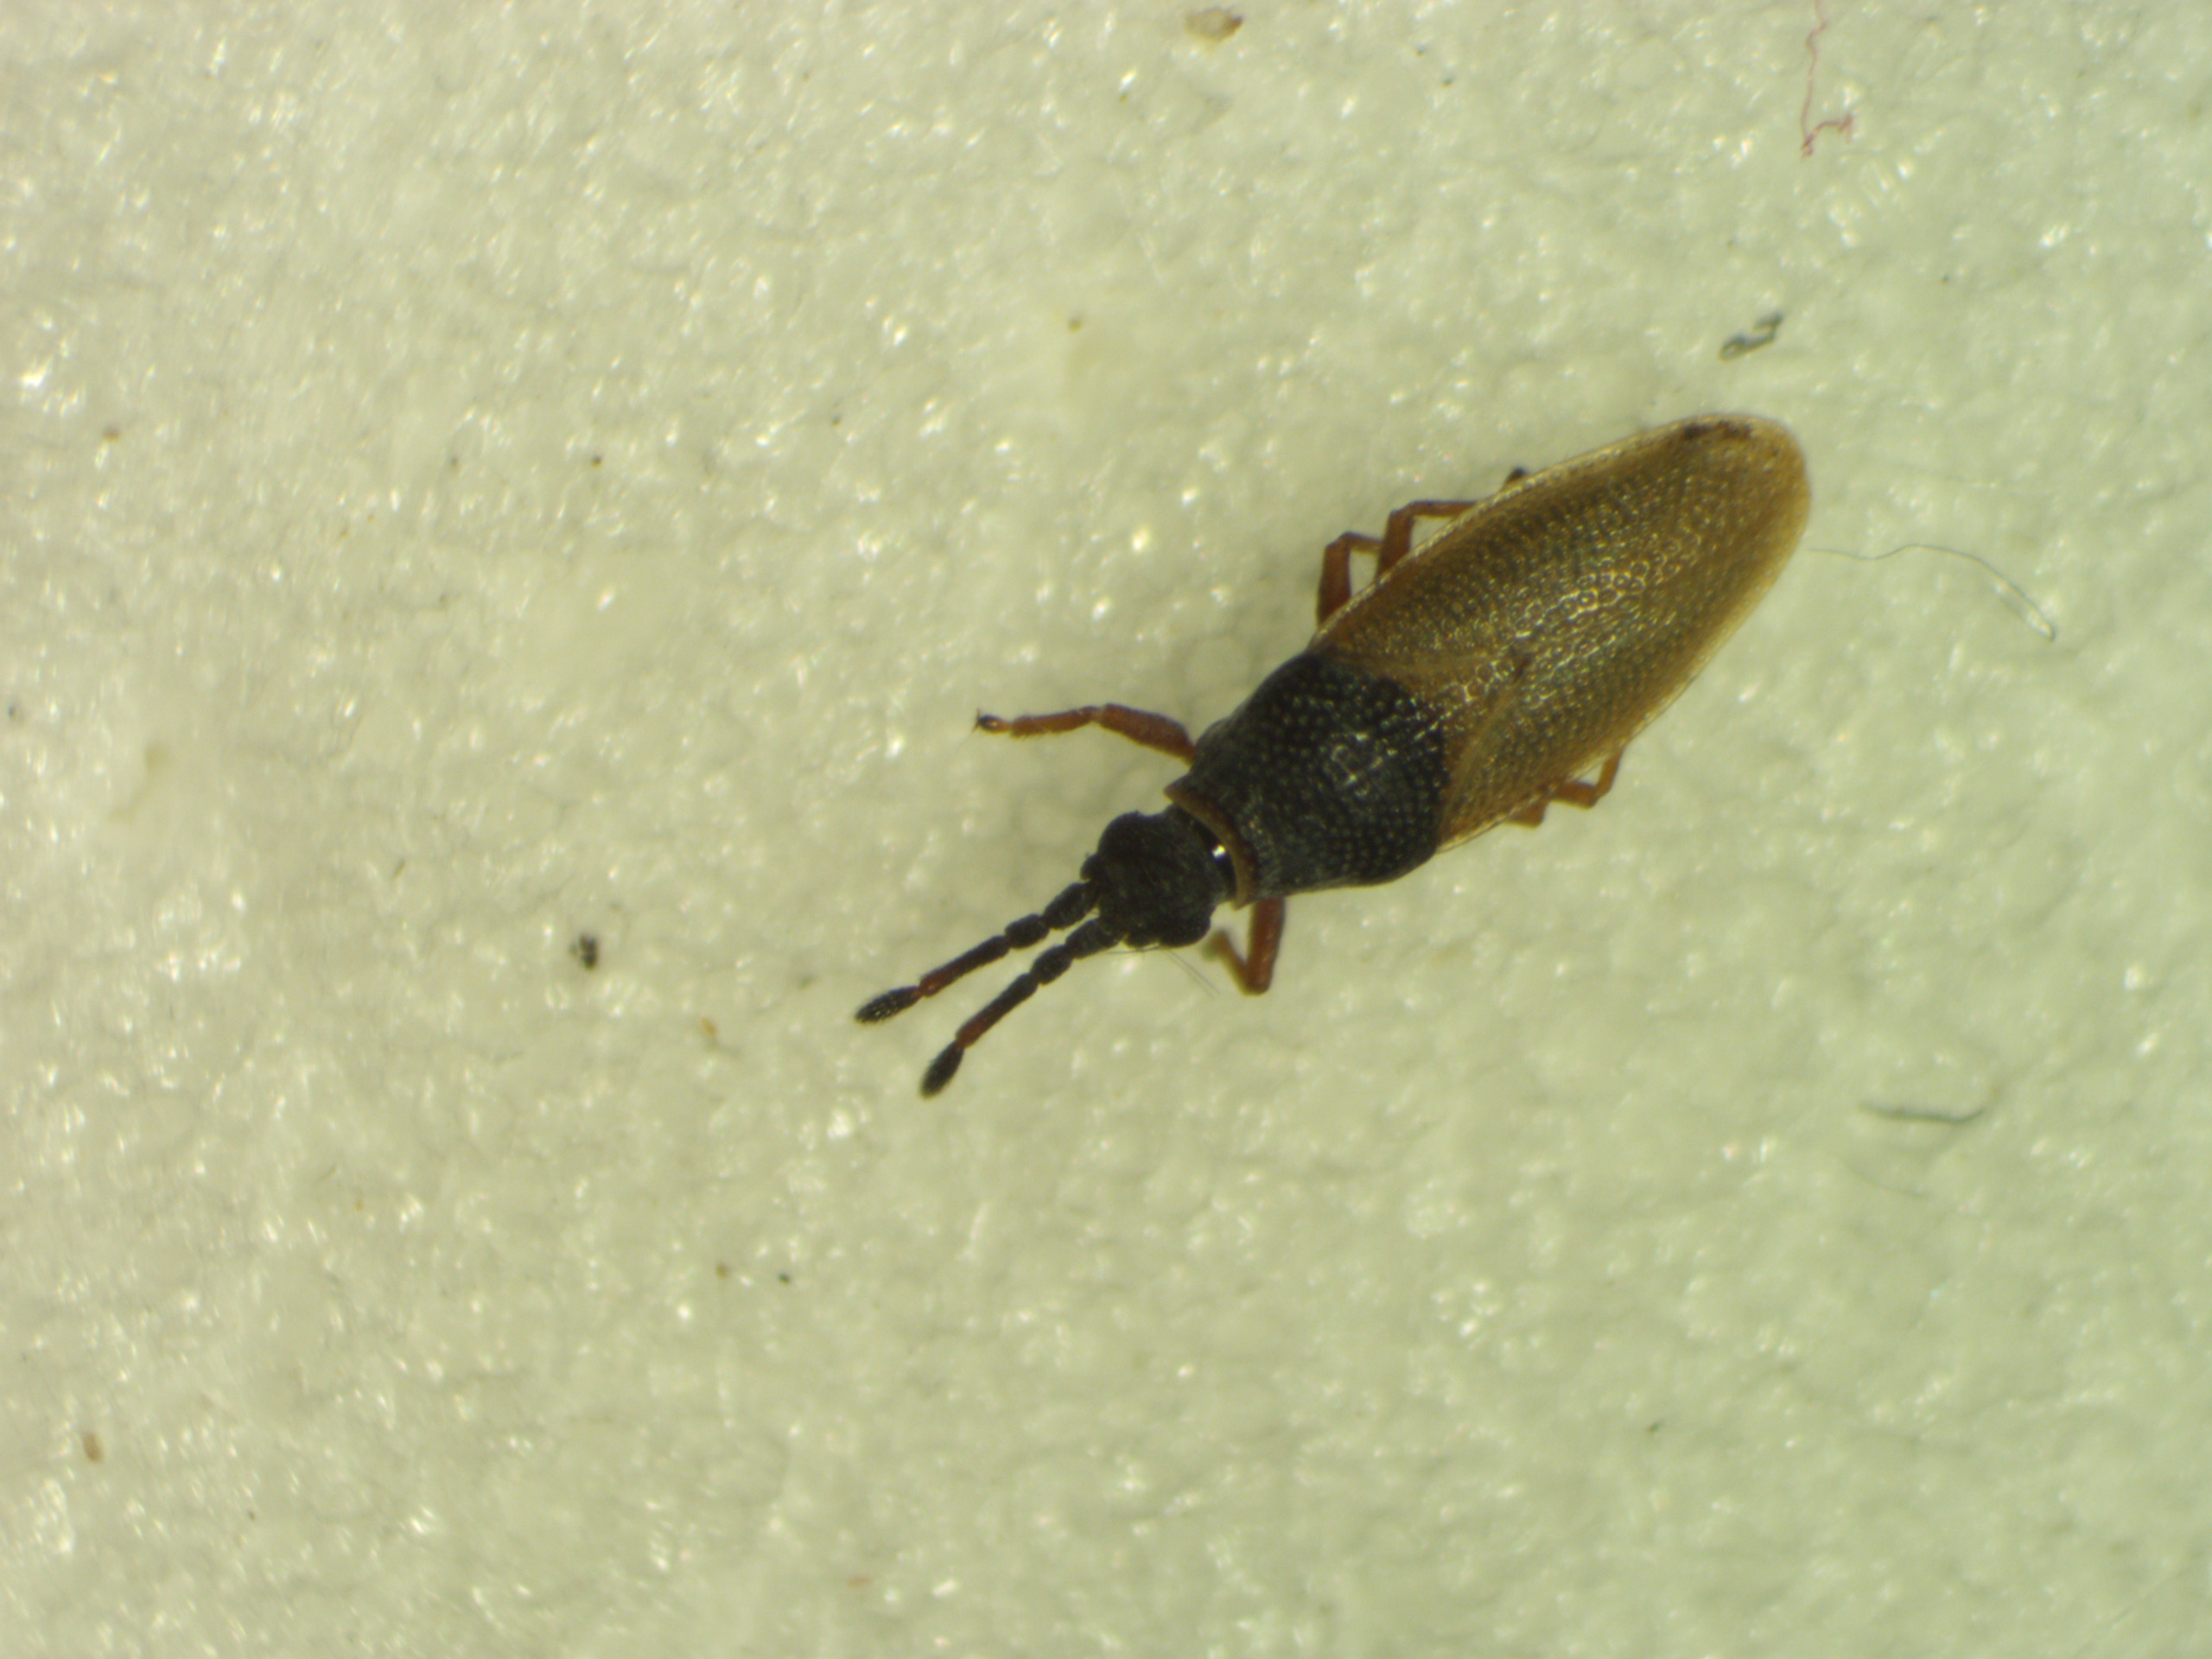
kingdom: Animalia
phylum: Arthropoda
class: Insecta
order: Hemiptera
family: Tingidae
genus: Agramma
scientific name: Agramma laetum
